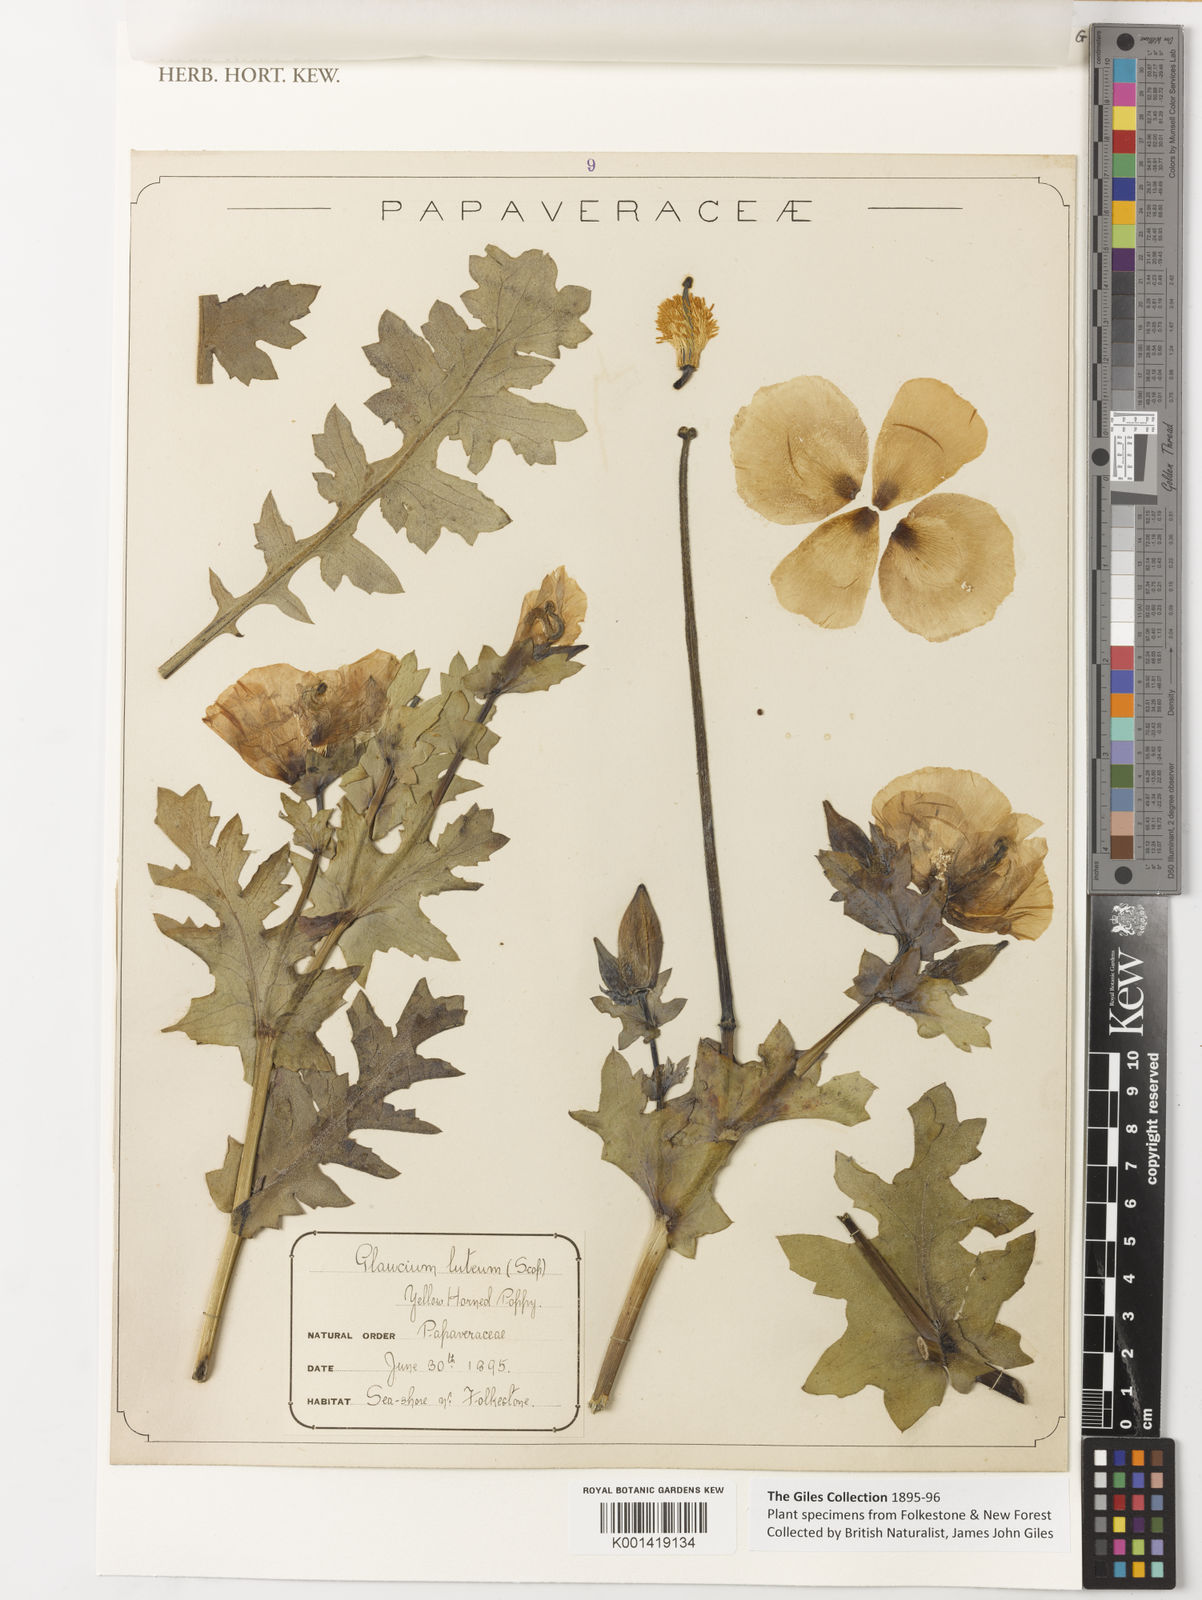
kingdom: Plantae
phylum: Tracheophyta
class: Magnoliopsida
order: Ranunculales
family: Papaveraceae
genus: Glaucium
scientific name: Glaucium
